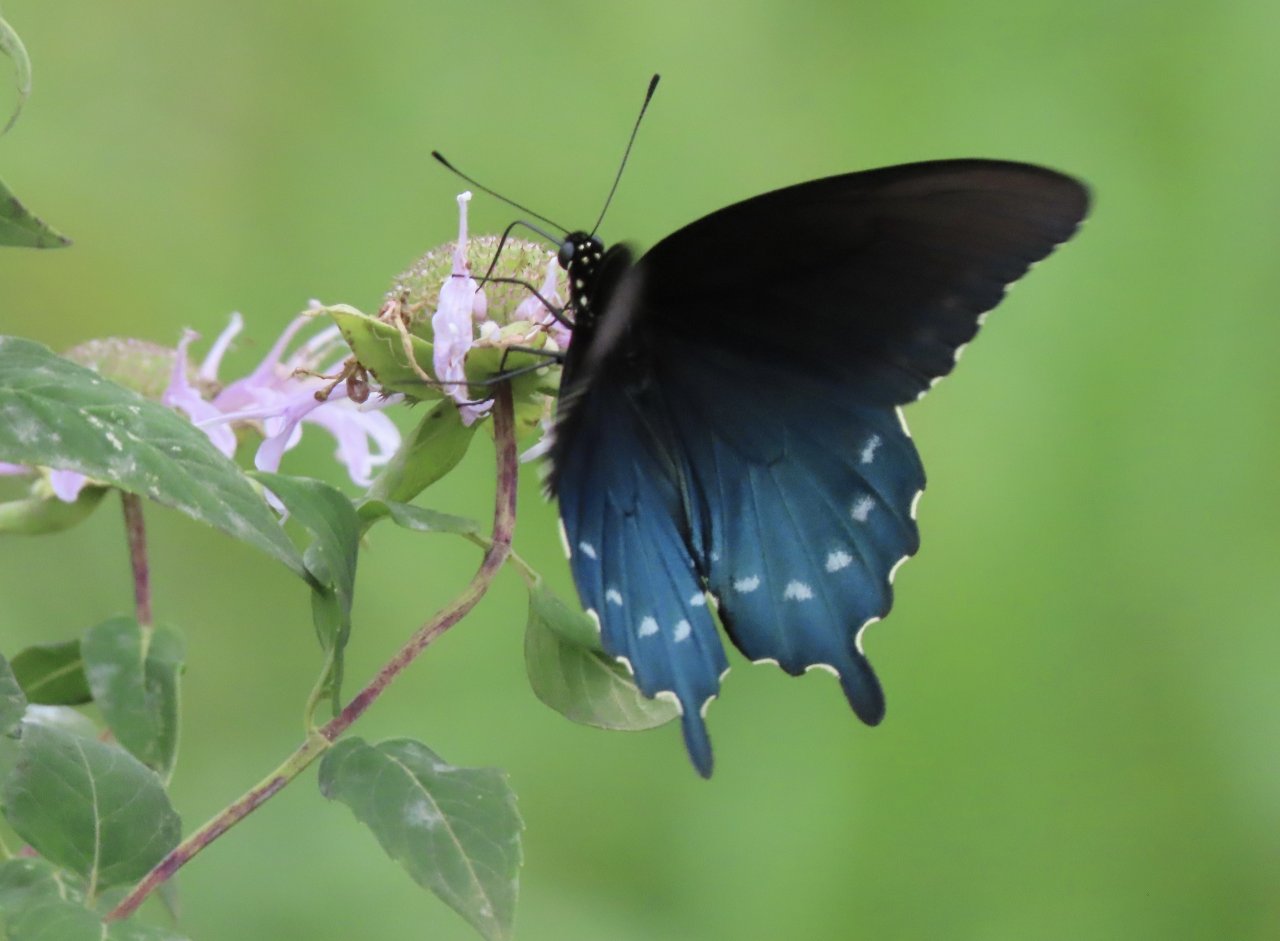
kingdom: Animalia
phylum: Arthropoda
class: Insecta
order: Lepidoptera
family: Papilionidae
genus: Battus
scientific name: Battus philenor
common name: Pipevine Swallowtail
